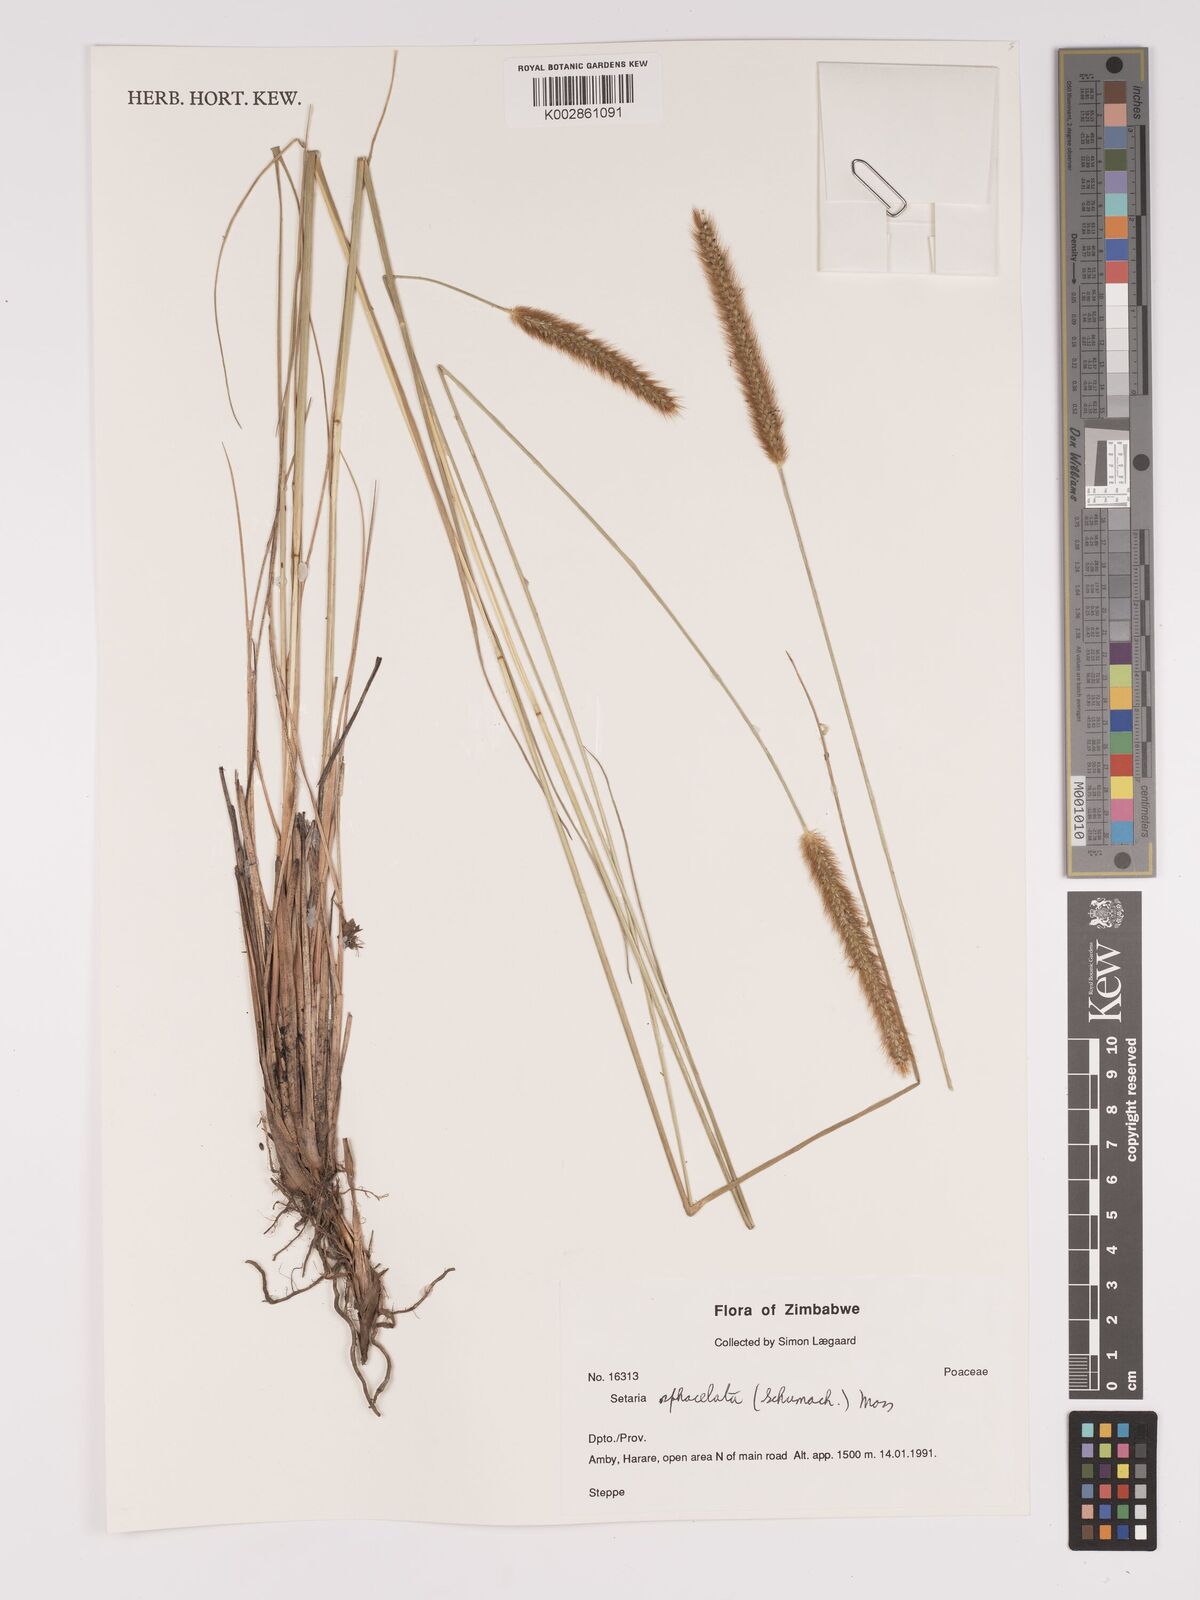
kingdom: Plantae
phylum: Tracheophyta
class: Liliopsida
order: Poales
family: Poaceae
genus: Setaria
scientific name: Setaria sphacelata
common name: African bristlegrass
